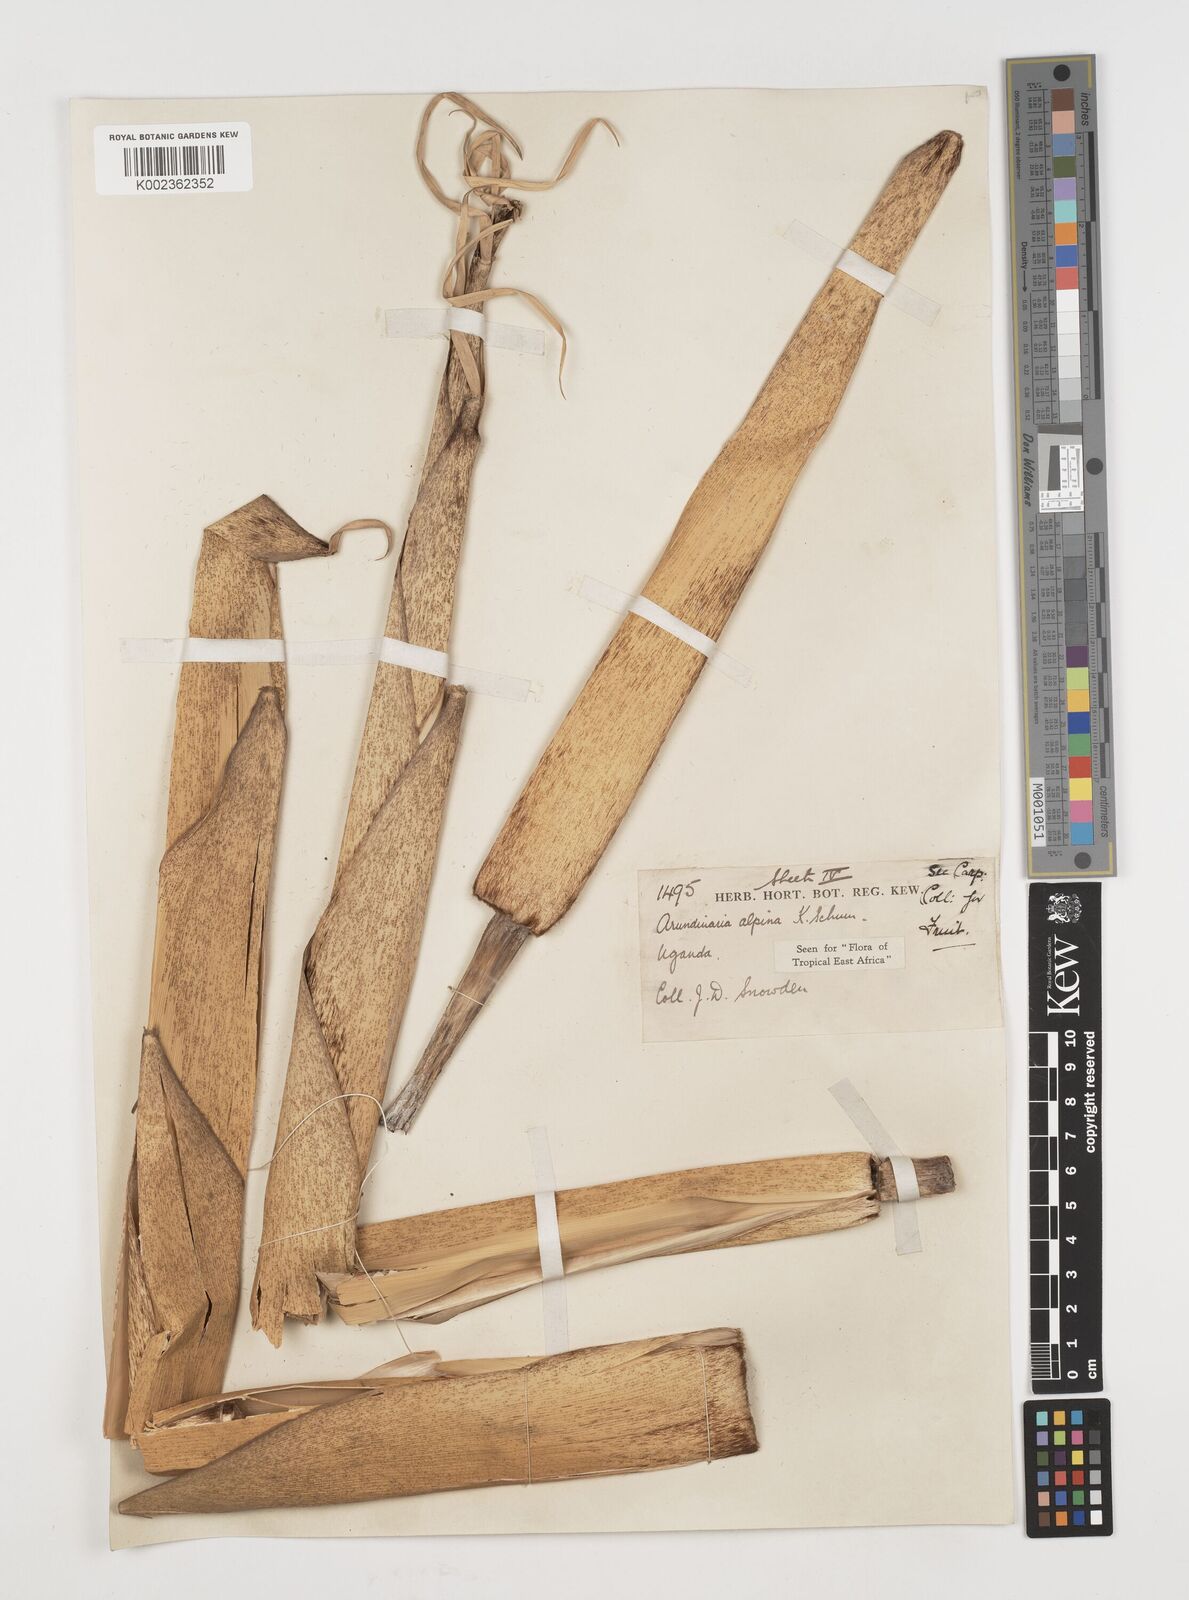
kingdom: Plantae
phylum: Tracheophyta
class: Liliopsida
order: Poales
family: Poaceae
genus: Oldeania
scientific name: Oldeania alpina
